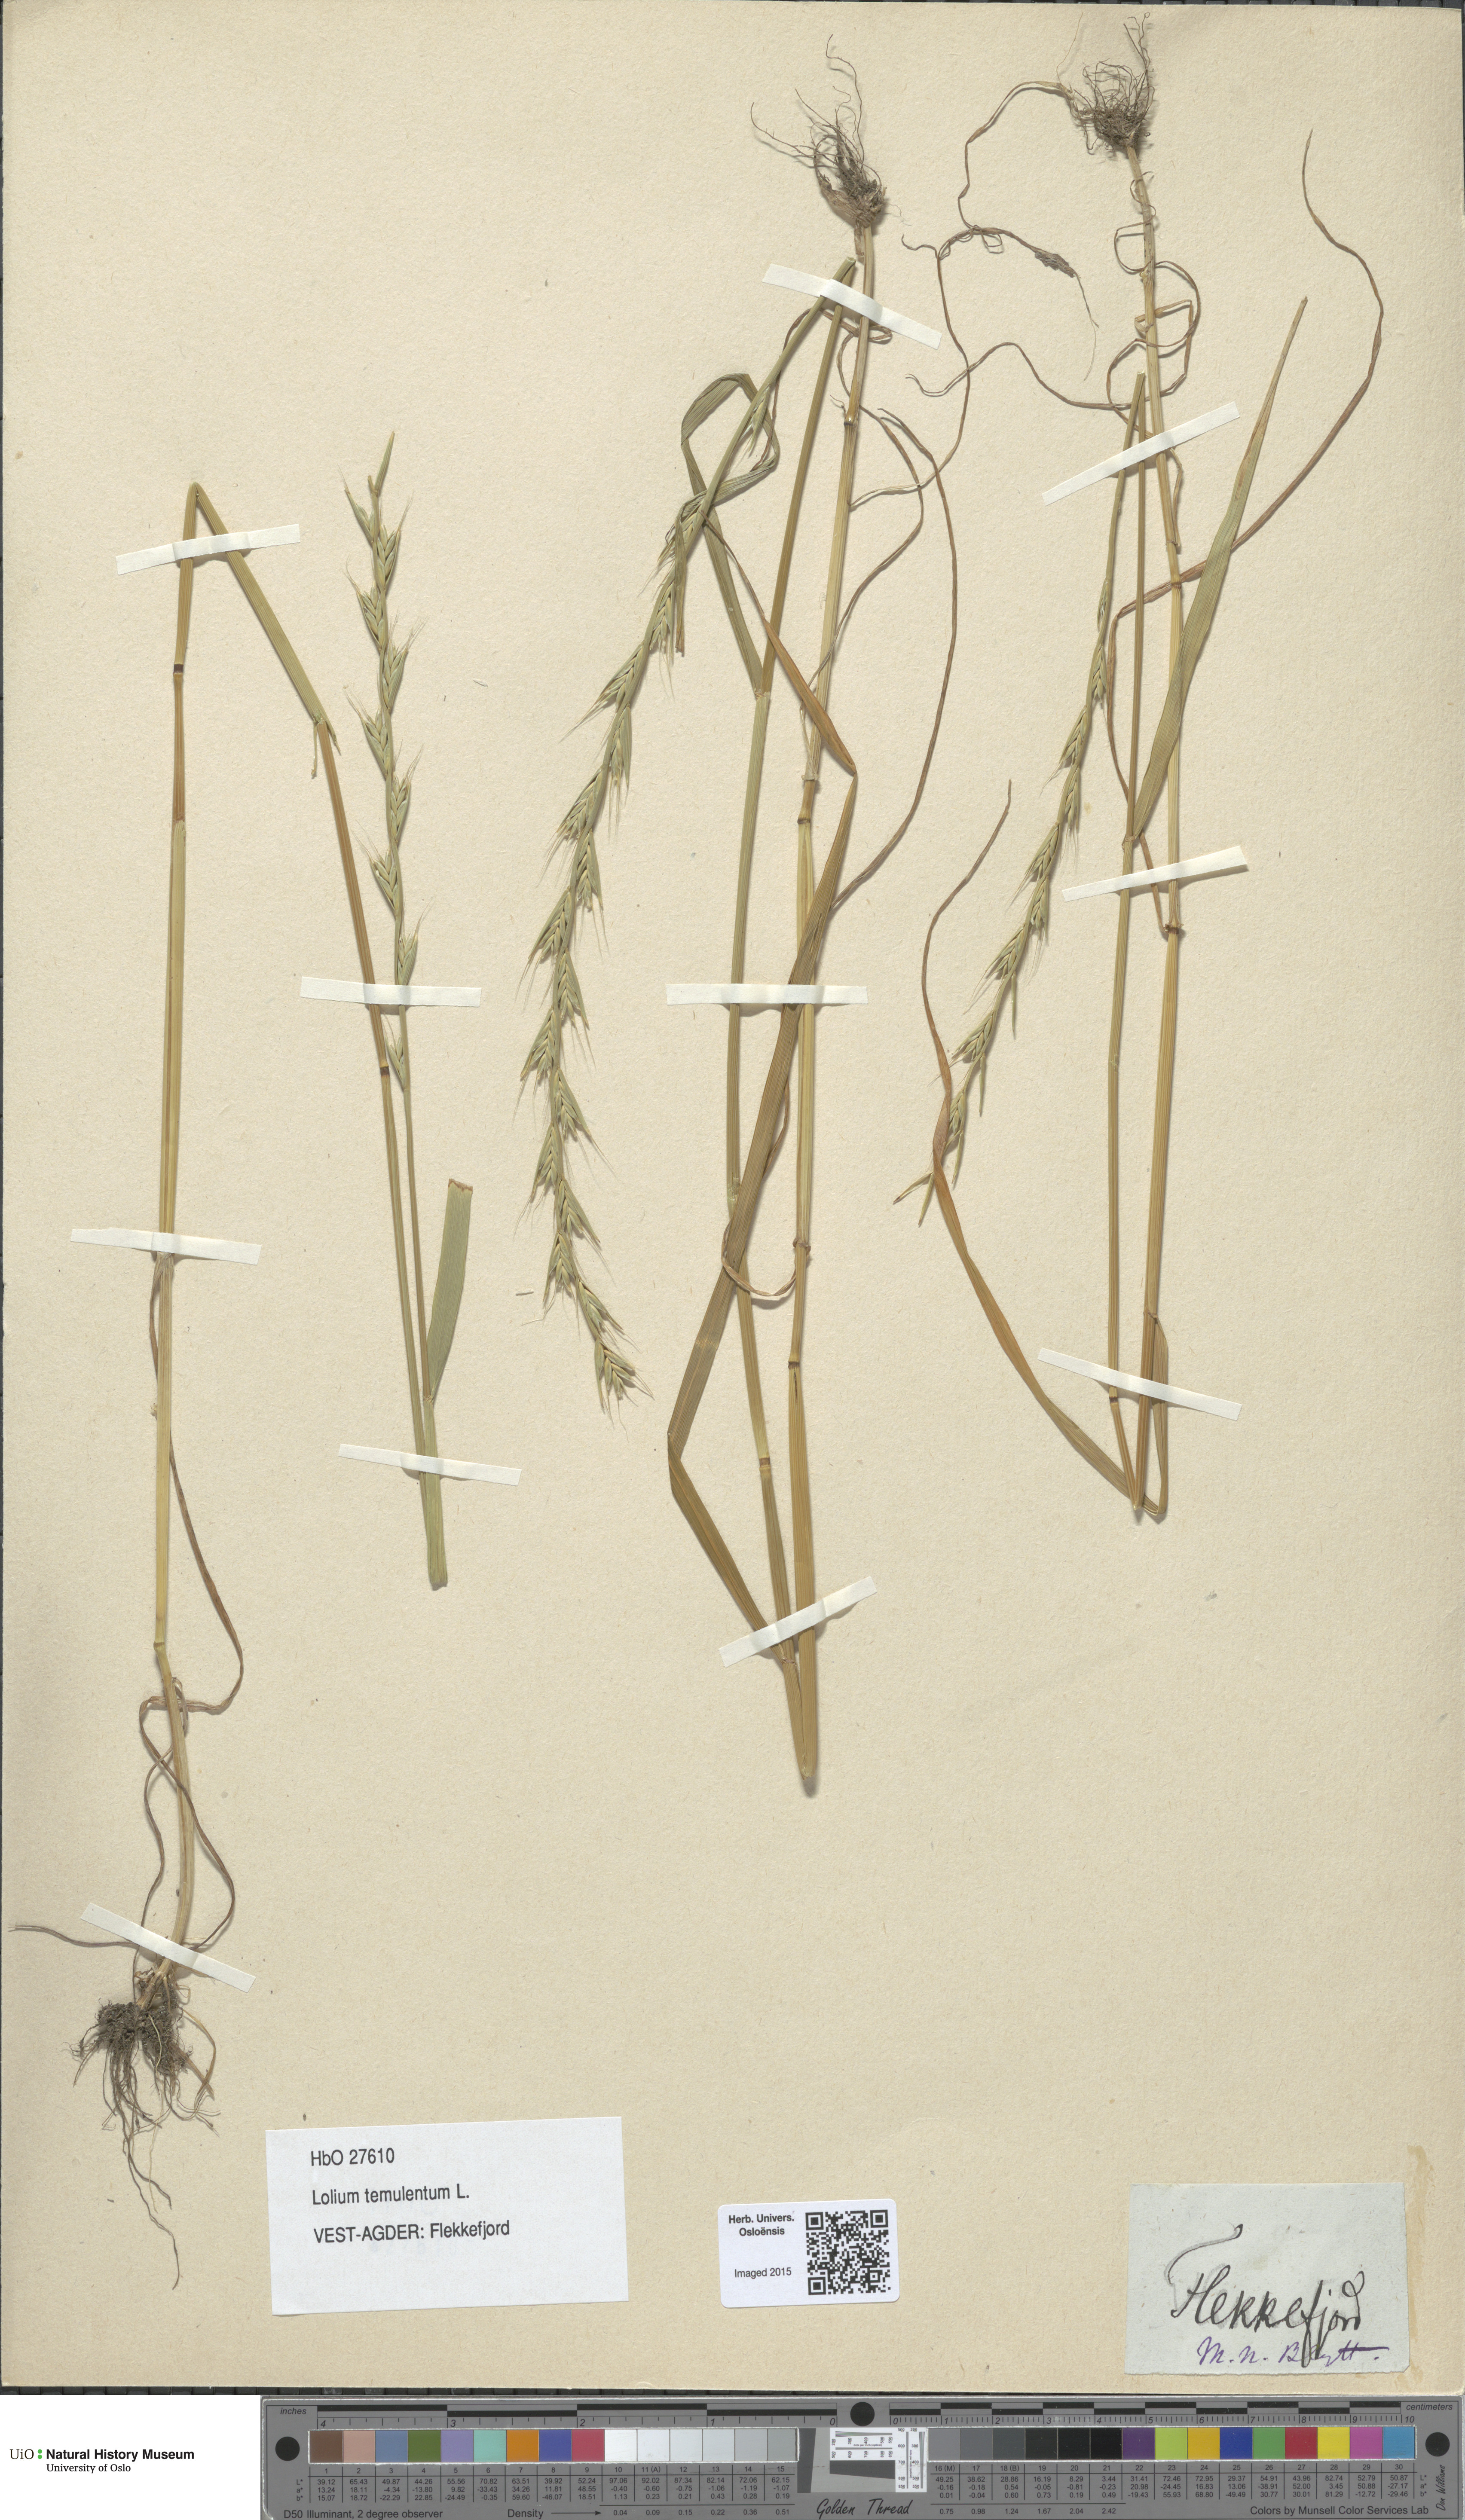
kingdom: Plantae
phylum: Tracheophyta
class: Liliopsida
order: Poales
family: Poaceae
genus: Lolium
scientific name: Lolium temulentum
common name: Darnel
